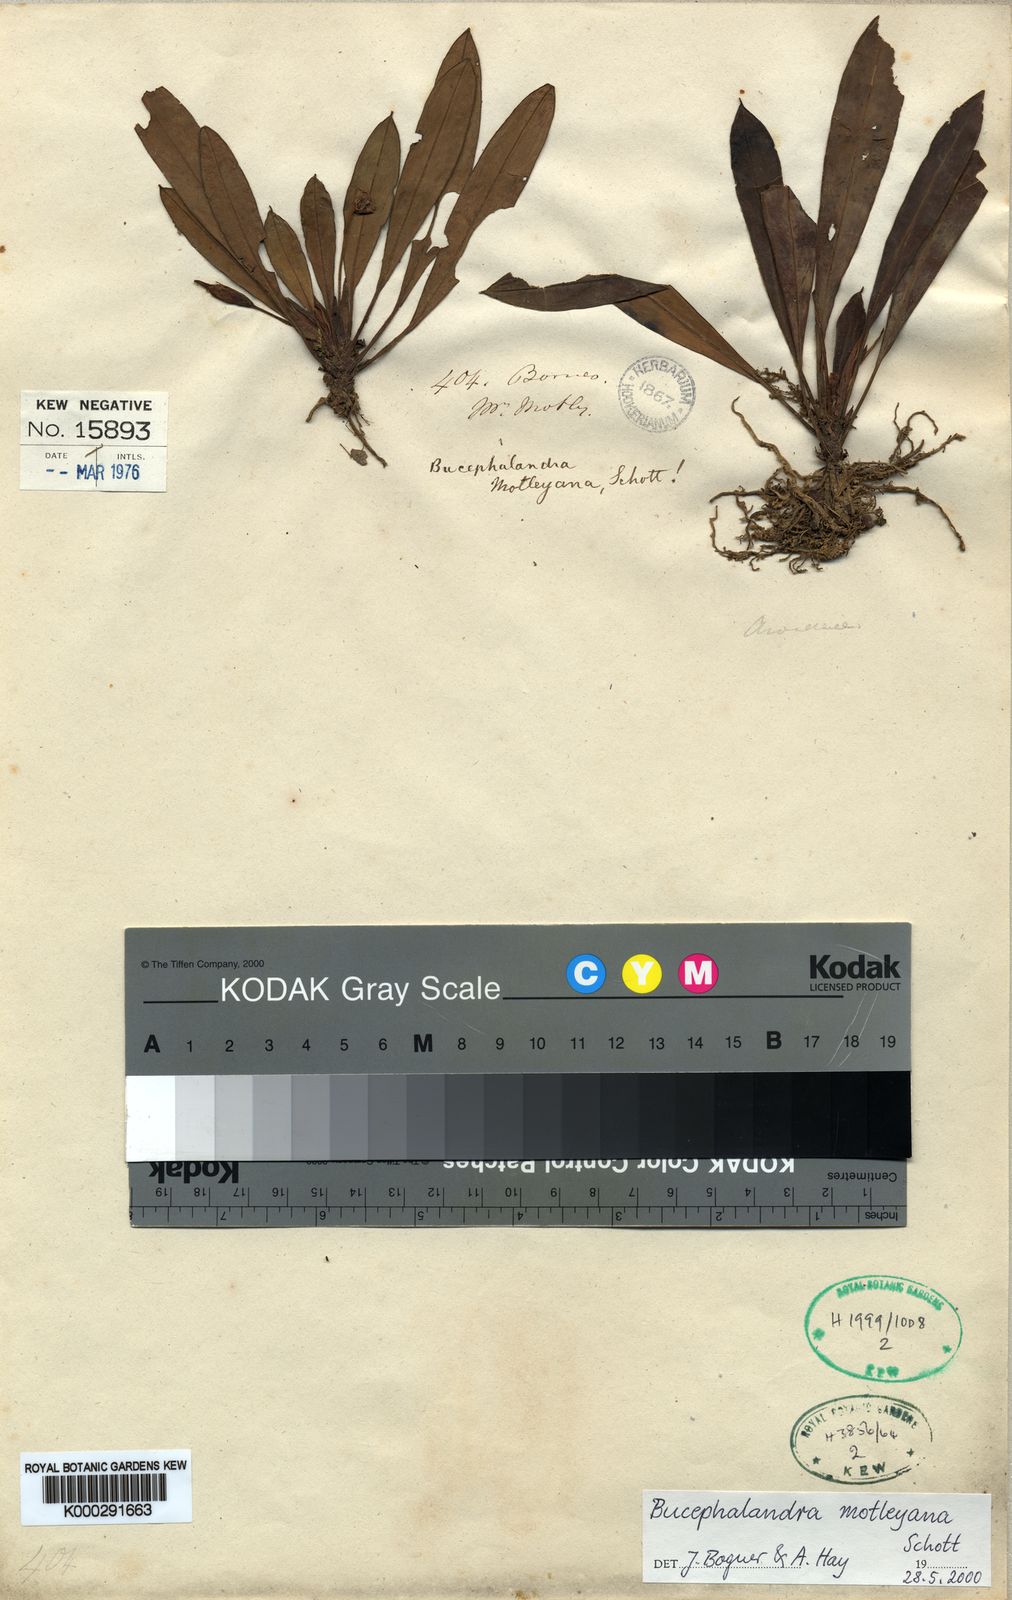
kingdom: Plantae
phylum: Tracheophyta
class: Liliopsida
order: Alismatales
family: Araceae
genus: Bucephalandra
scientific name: Bucephalandra motleyana
